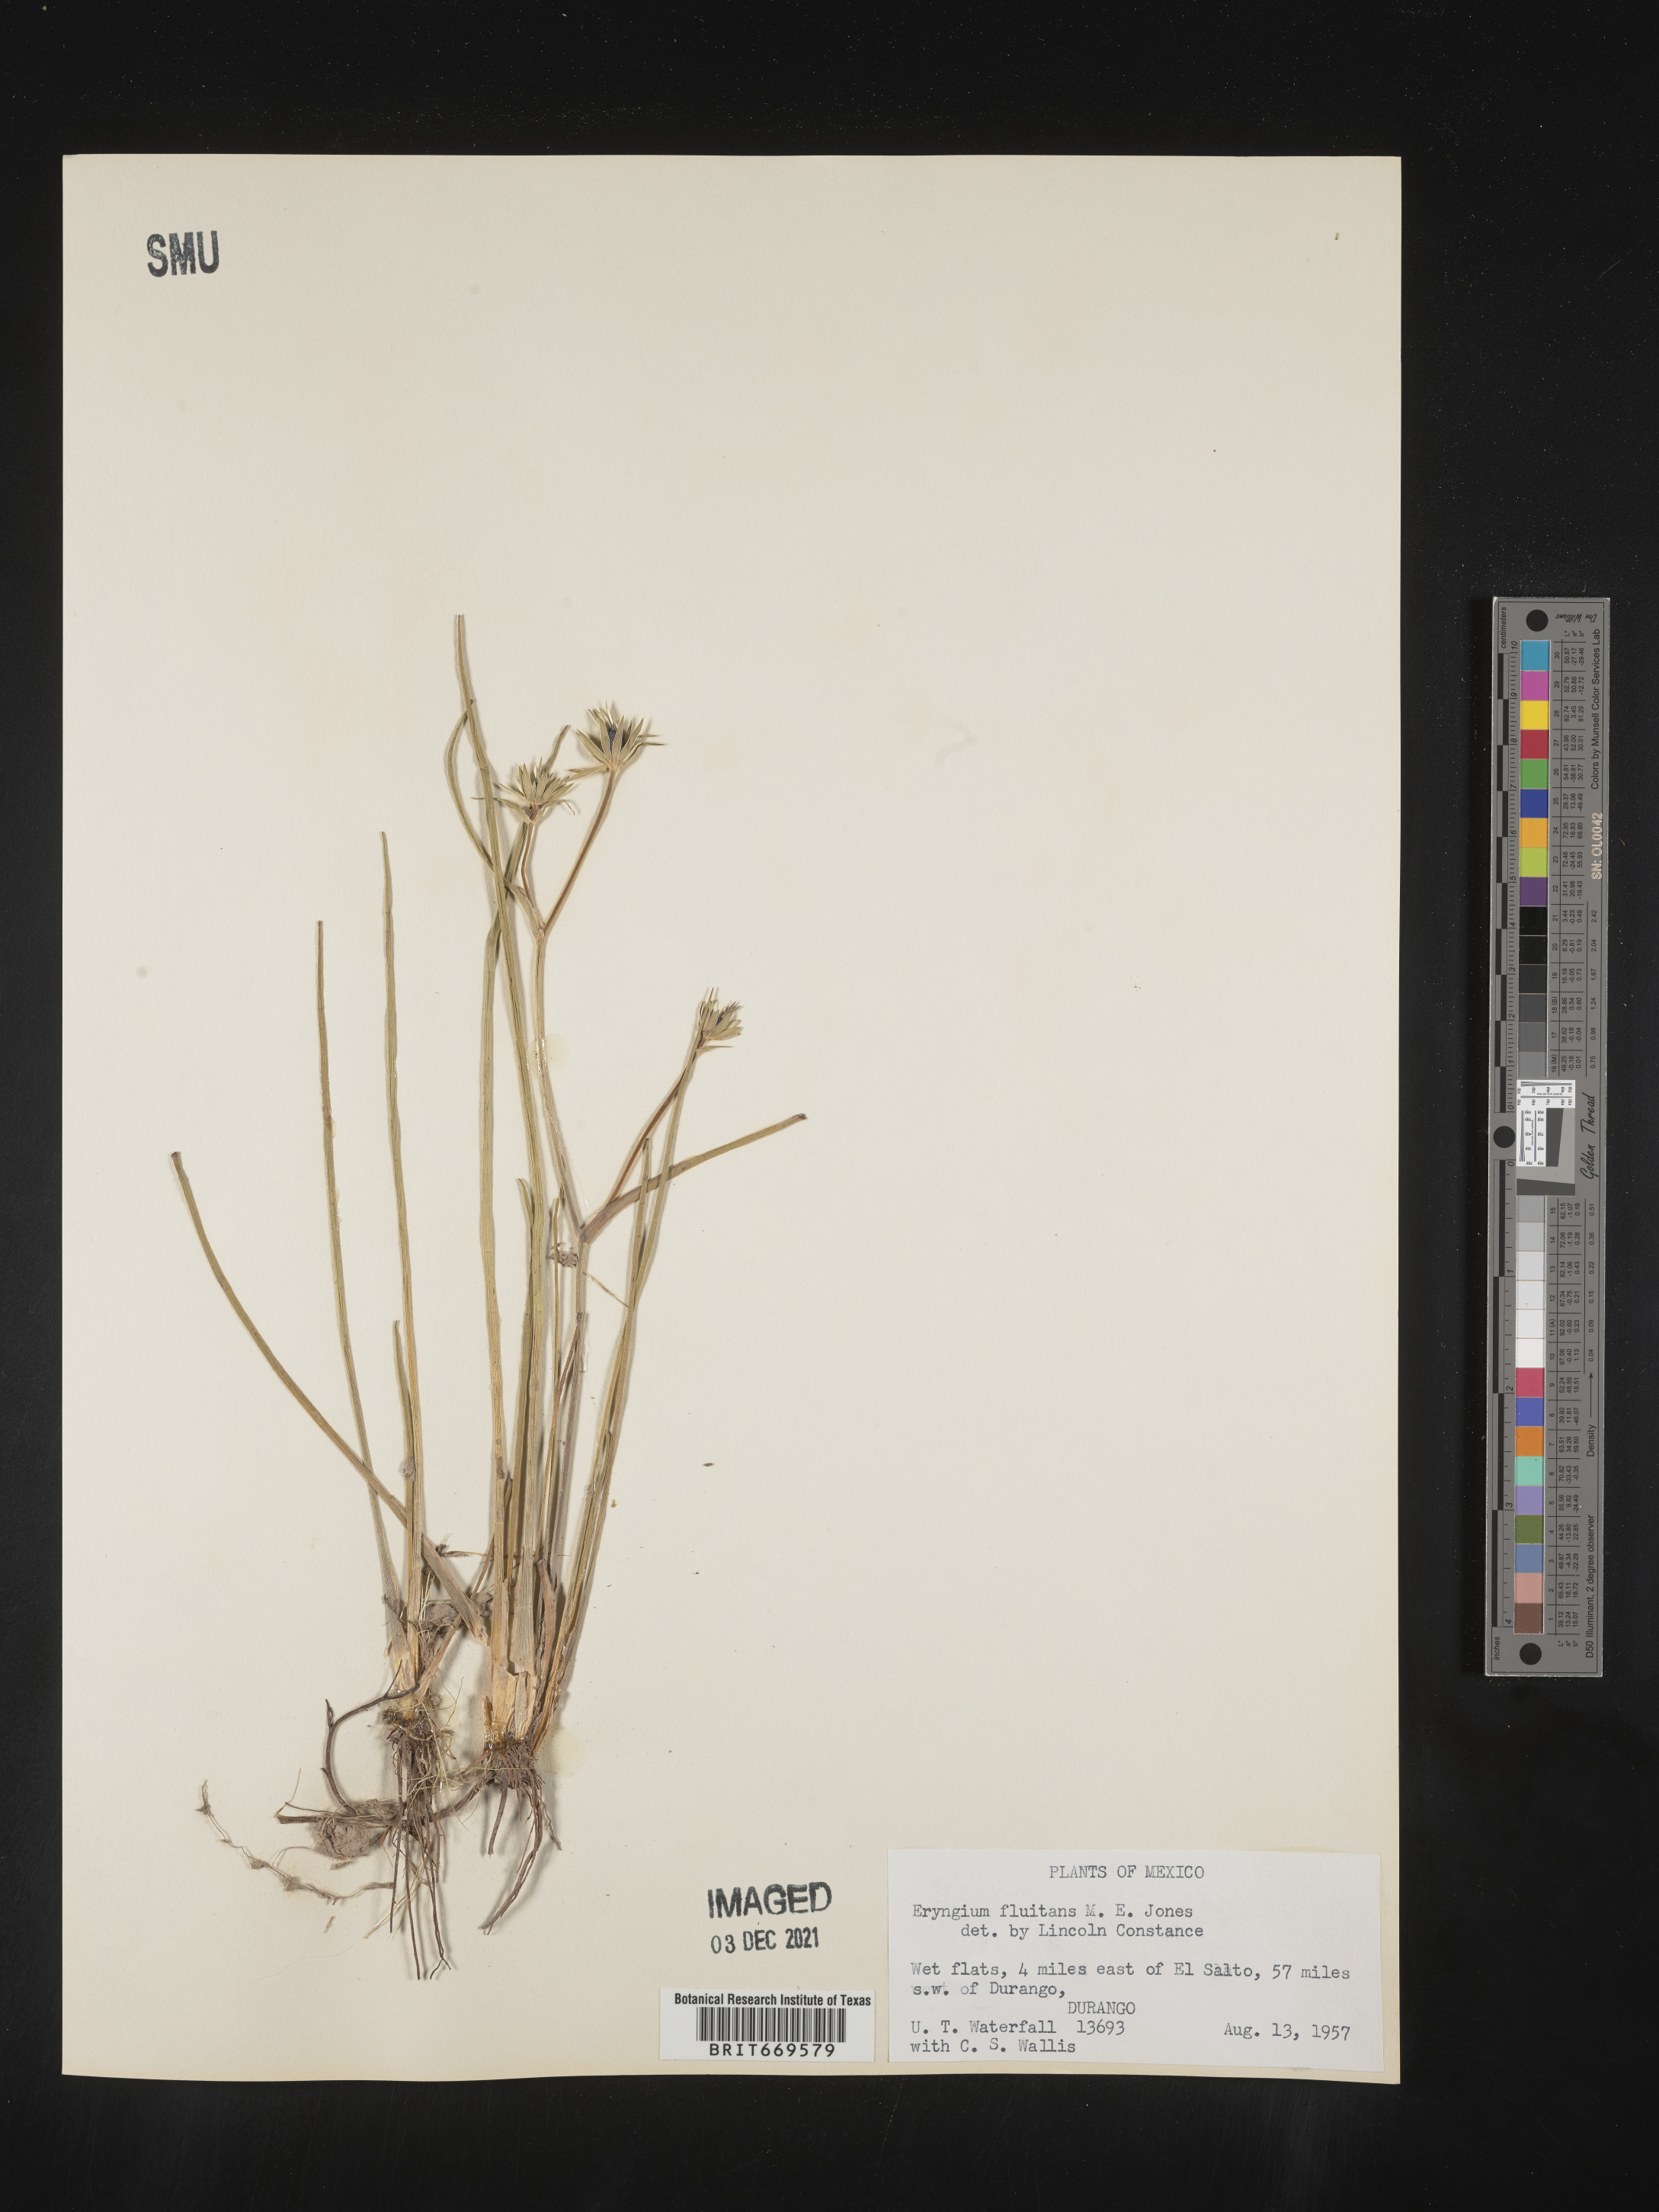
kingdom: Plantae
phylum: Tracheophyta
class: Magnoliopsida
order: Apiales
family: Apiaceae
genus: Eryngium
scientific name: Eryngium
